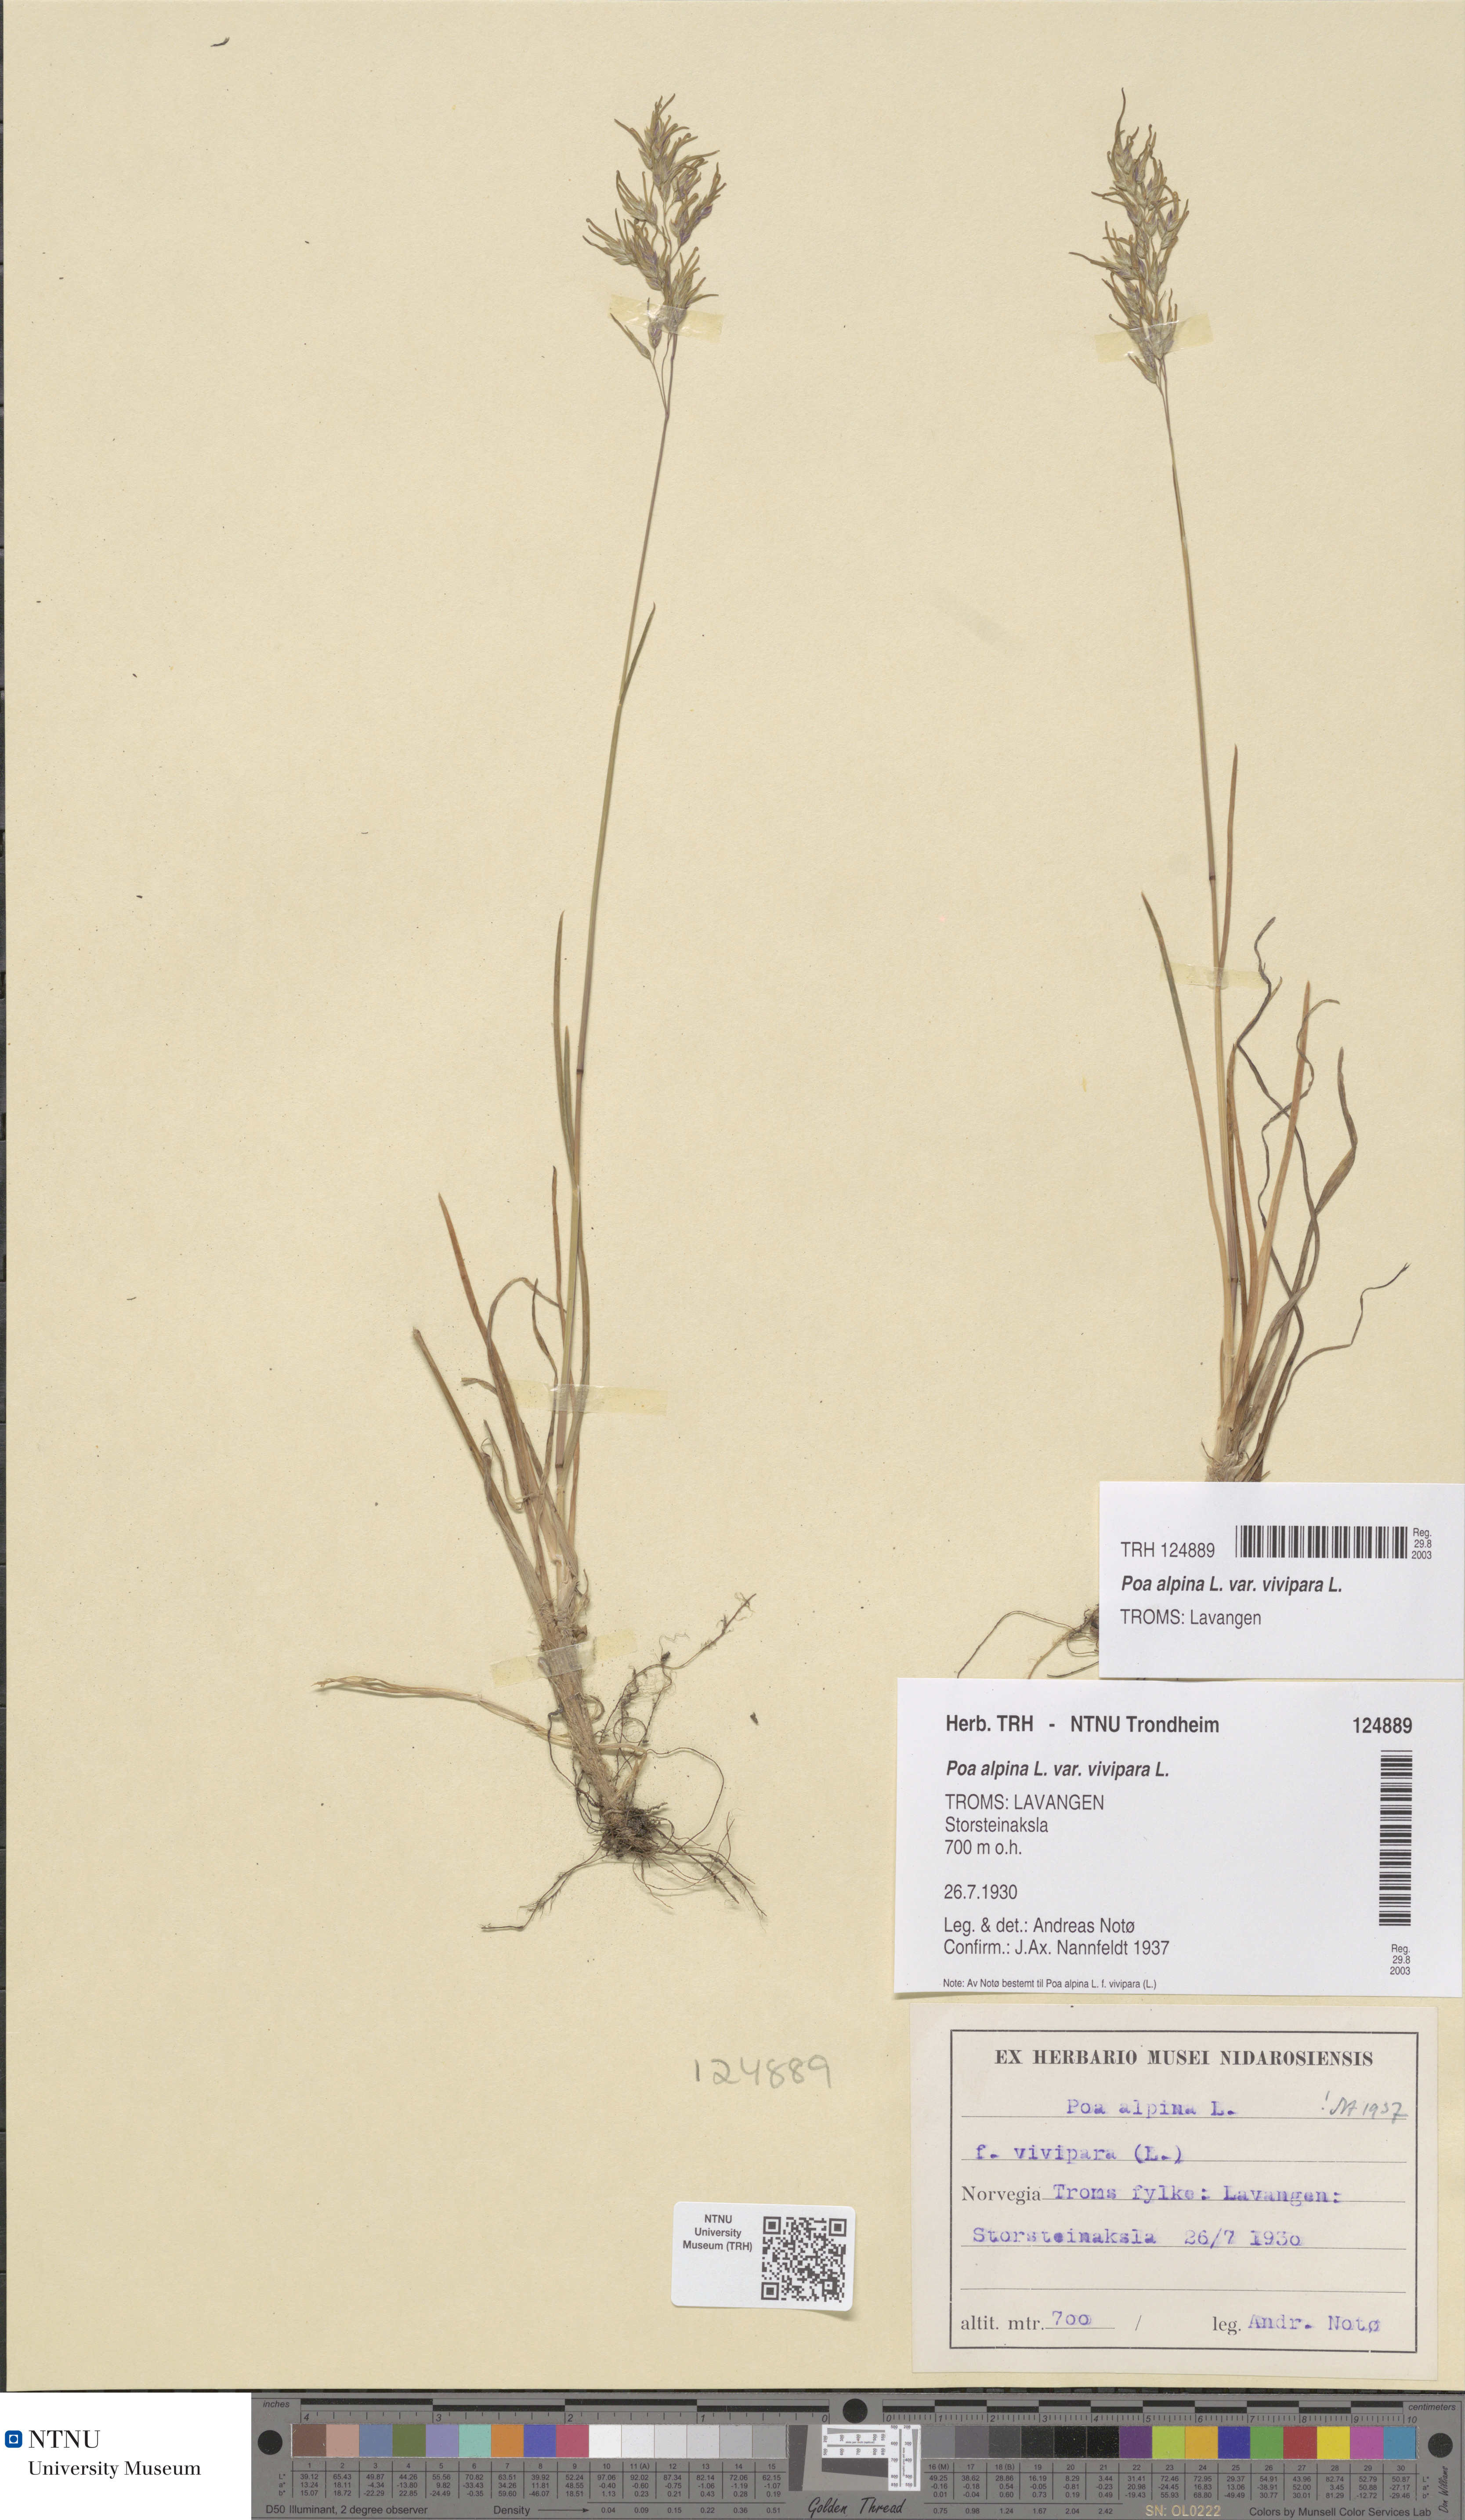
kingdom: Plantae
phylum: Tracheophyta
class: Liliopsida
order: Poales
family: Poaceae
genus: Poa
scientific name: Poa alpina
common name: Alpine bluegrass
